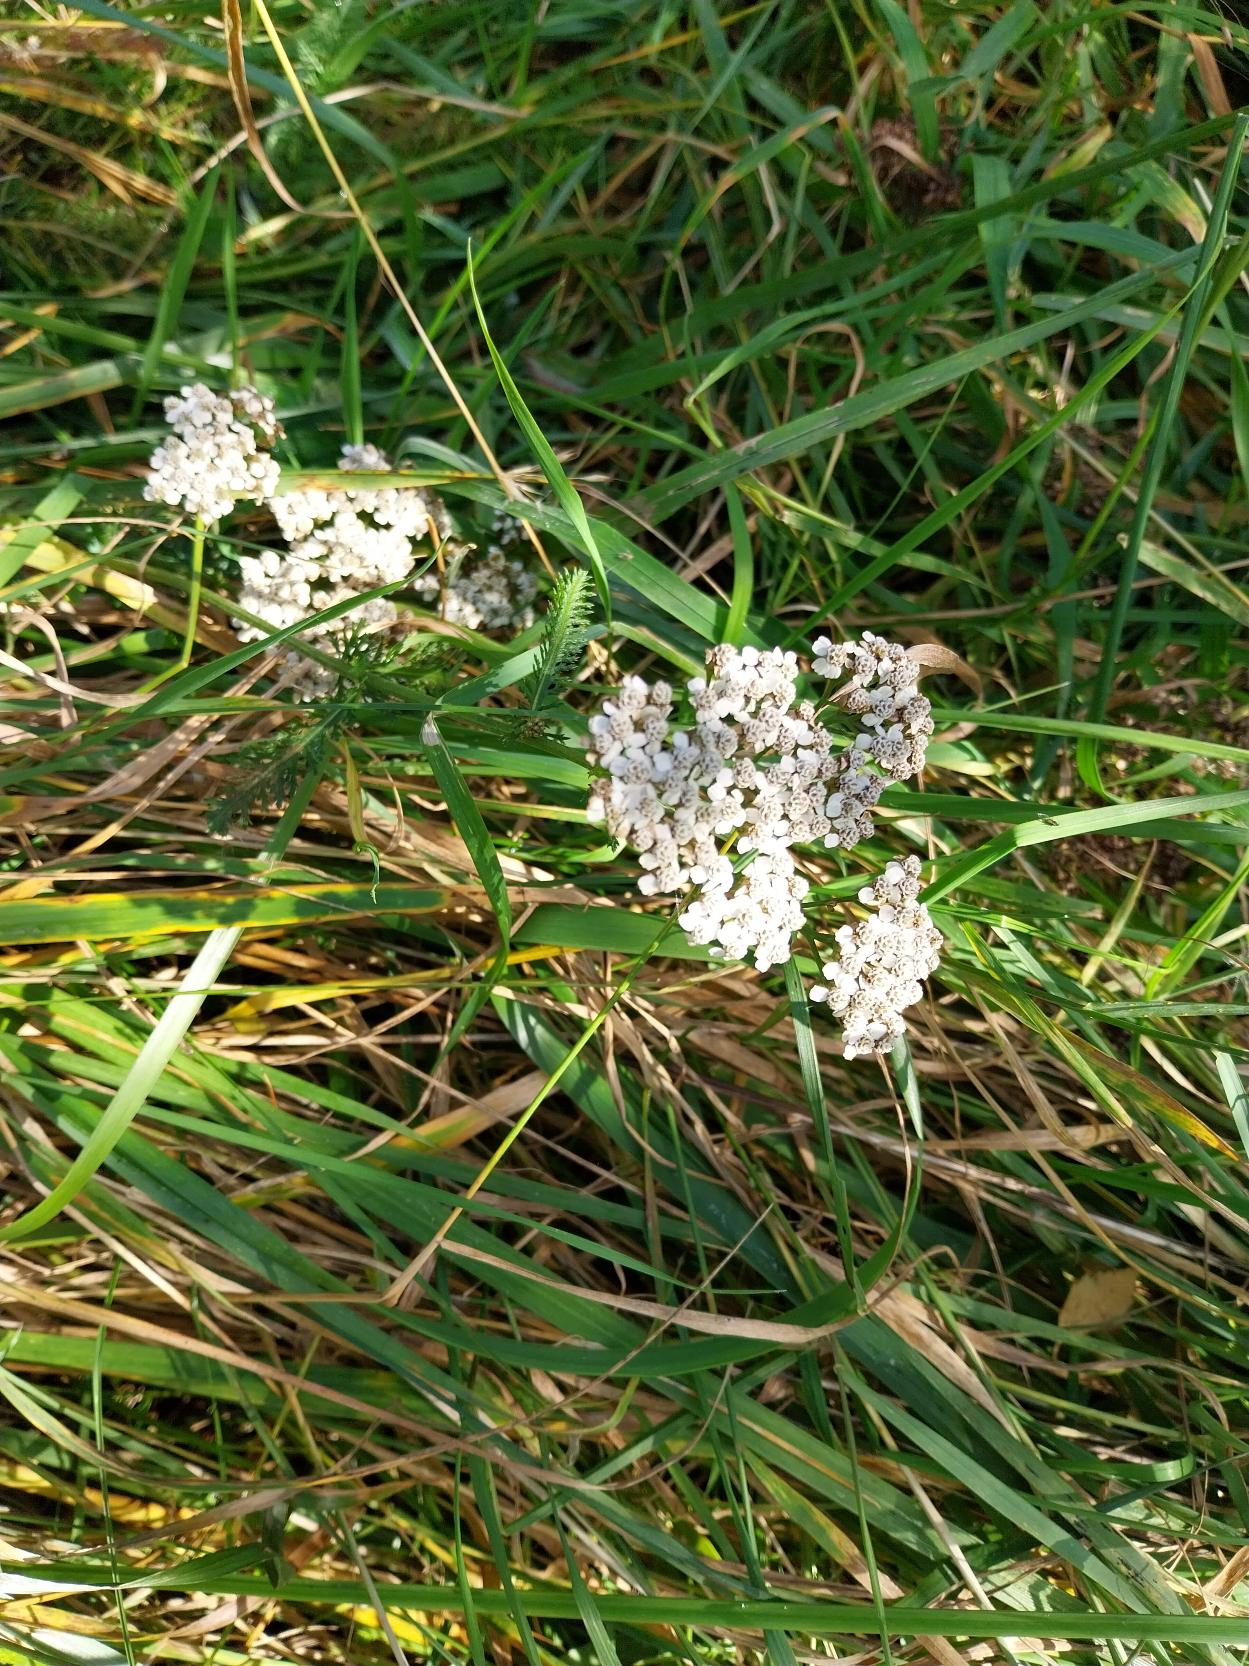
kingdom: Plantae
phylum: Tracheophyta
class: Magnoliopsida
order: Asterales
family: Asteraceae
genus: Achillea
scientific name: Achillea millefolium
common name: Almindelig røllike
